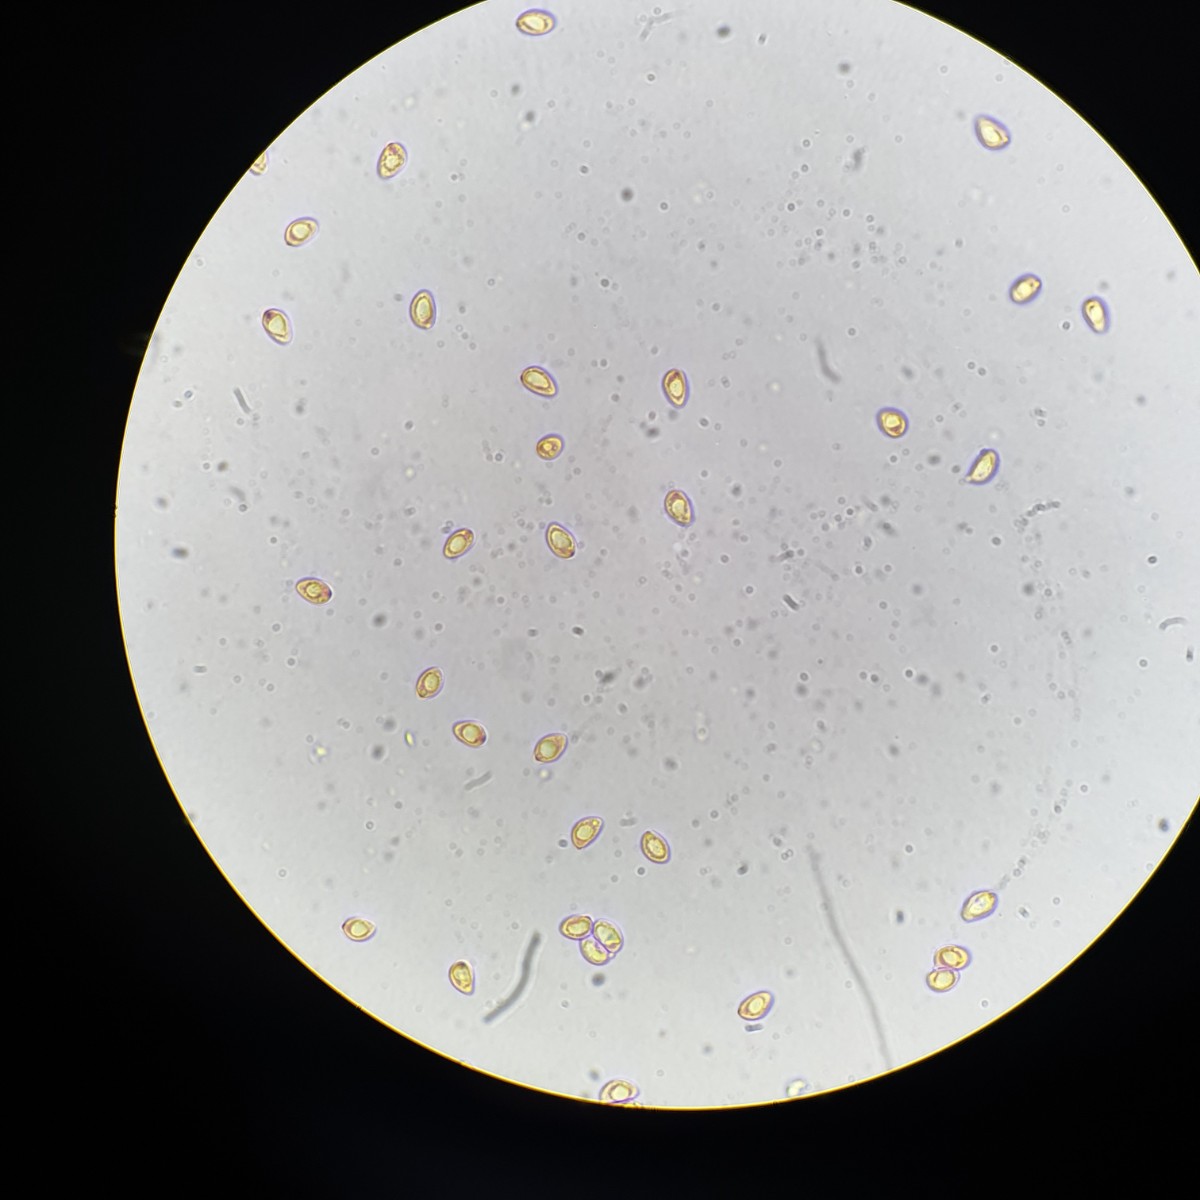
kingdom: Fungi
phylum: Basidiomycota
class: Agaricomycetes
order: Agaricales
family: Tricholomataceae
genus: Tricholoma
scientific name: Tricholoma stiparophyllum
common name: hvid ridderhat
